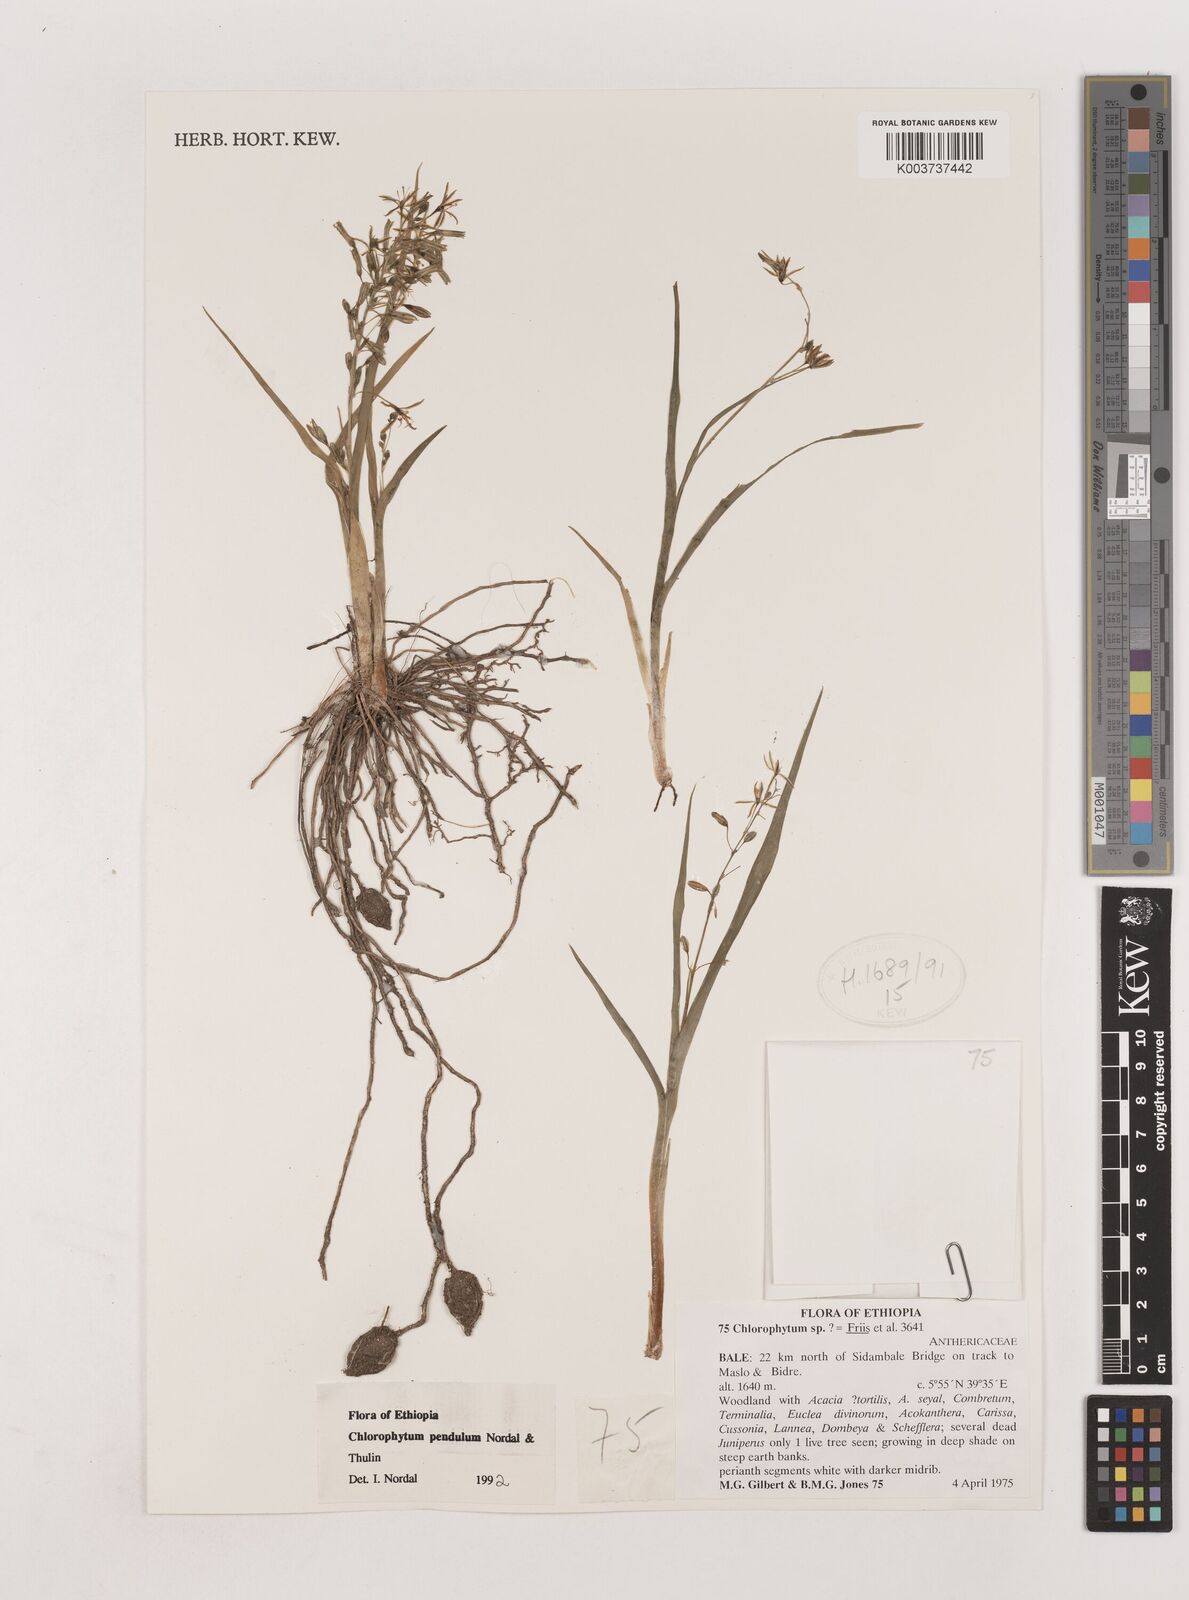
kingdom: Plantae
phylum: Tracheophyta
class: Liliopsida
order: Asparagales
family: Asparagaceae
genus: Chlorophytum
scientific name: Chlorophytum pendulum
